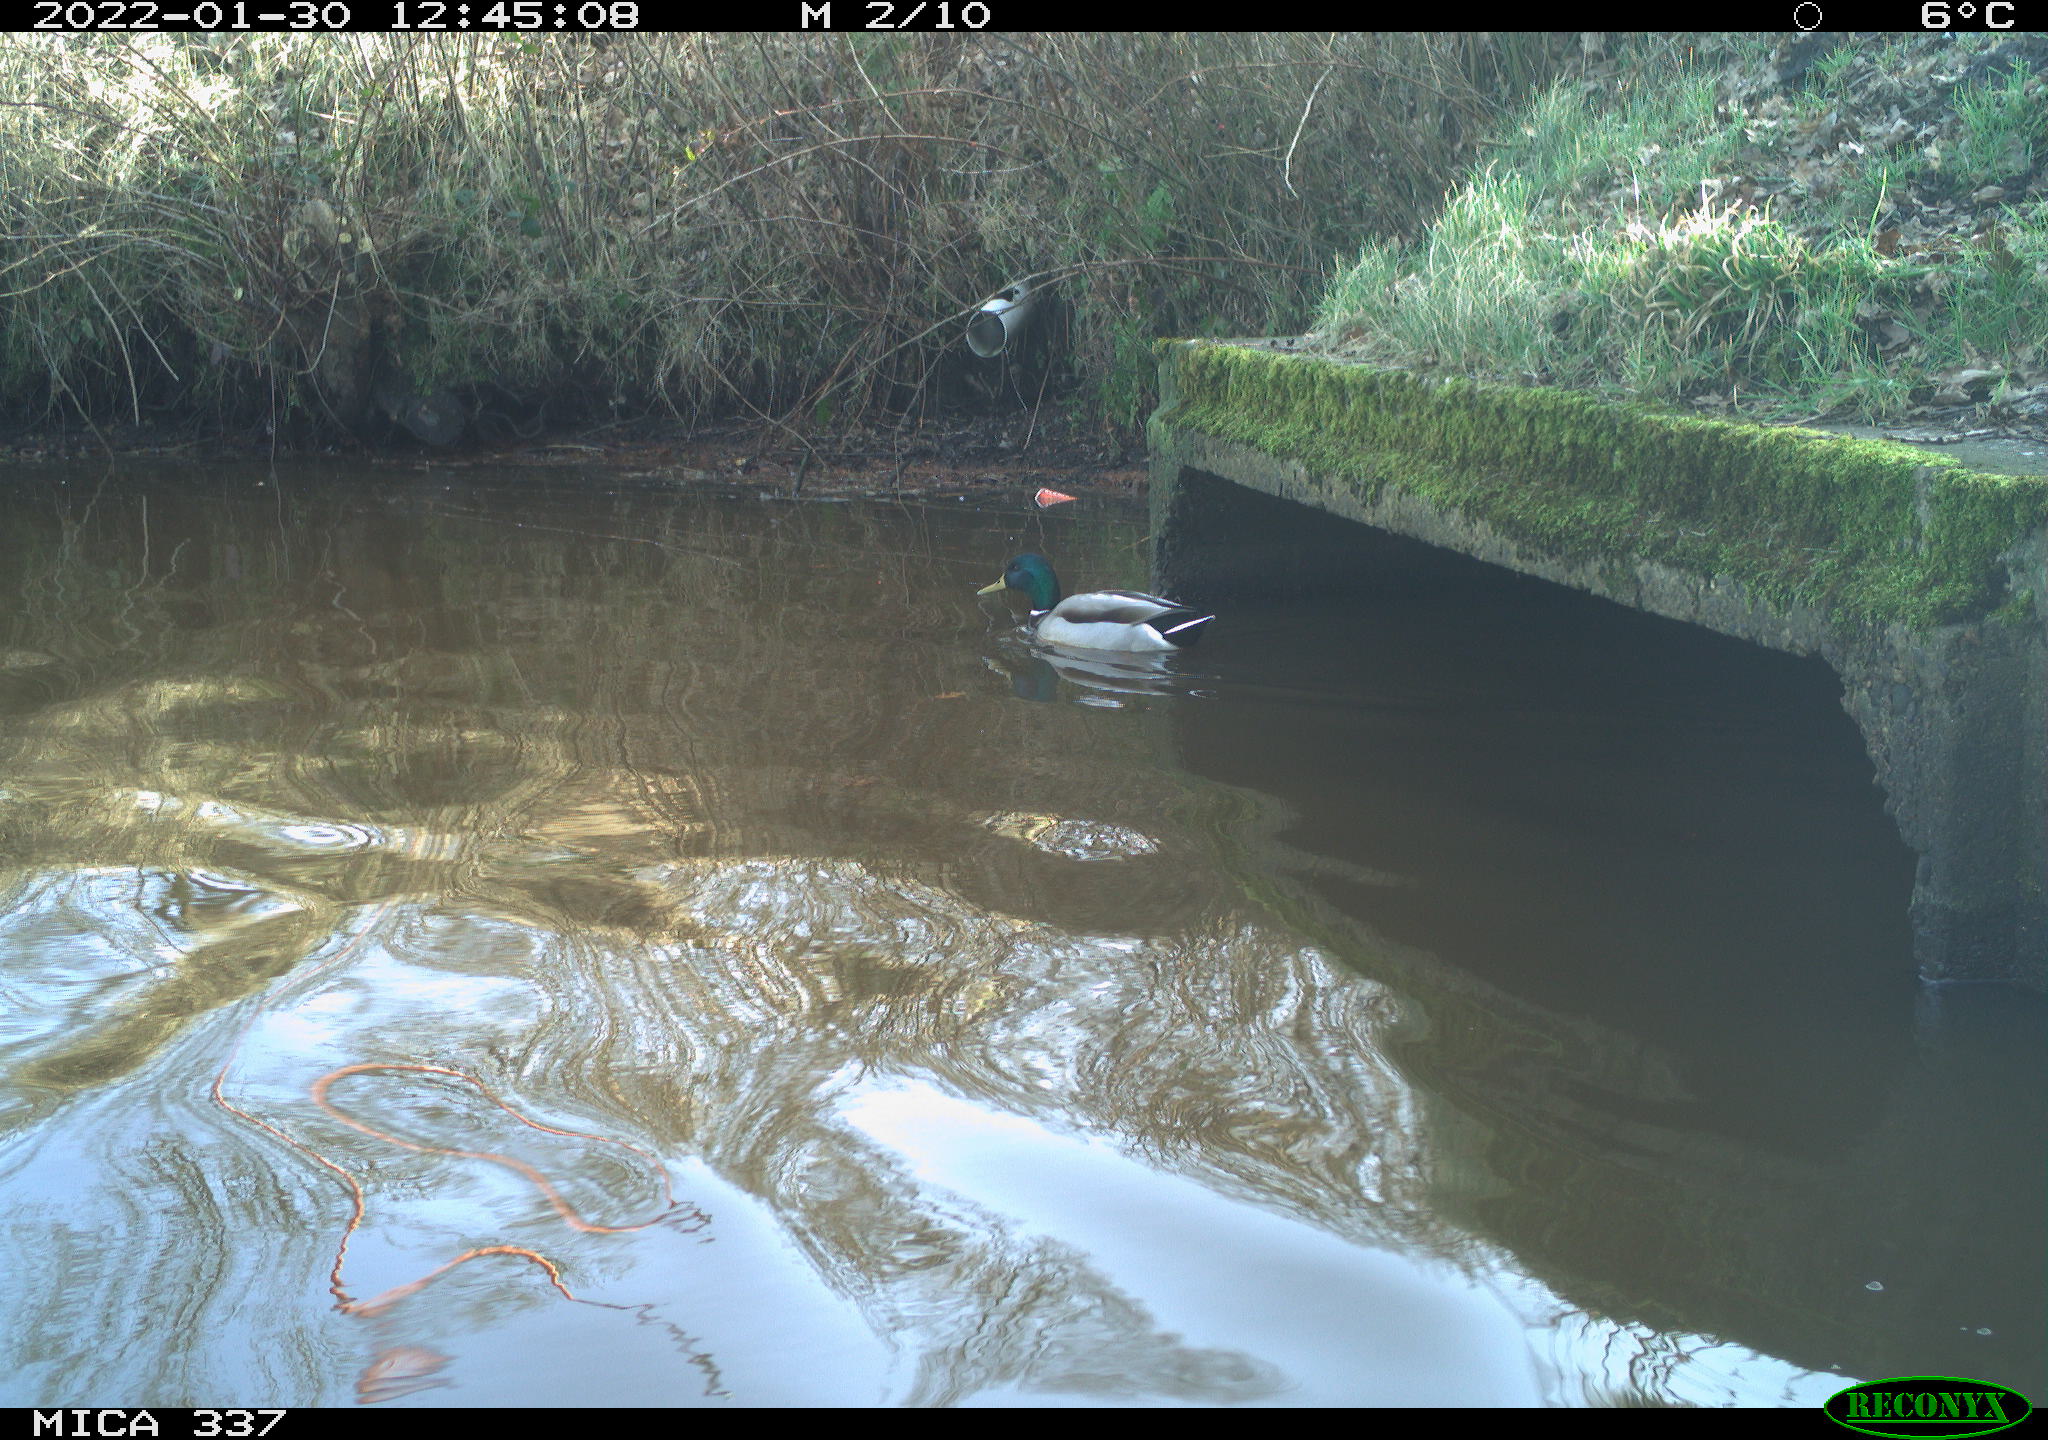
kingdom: Animalia
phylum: Chordata
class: Aves
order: Anseriformes
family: Anatidae
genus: Anas
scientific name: Anas platyrhynchos
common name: Mallard
